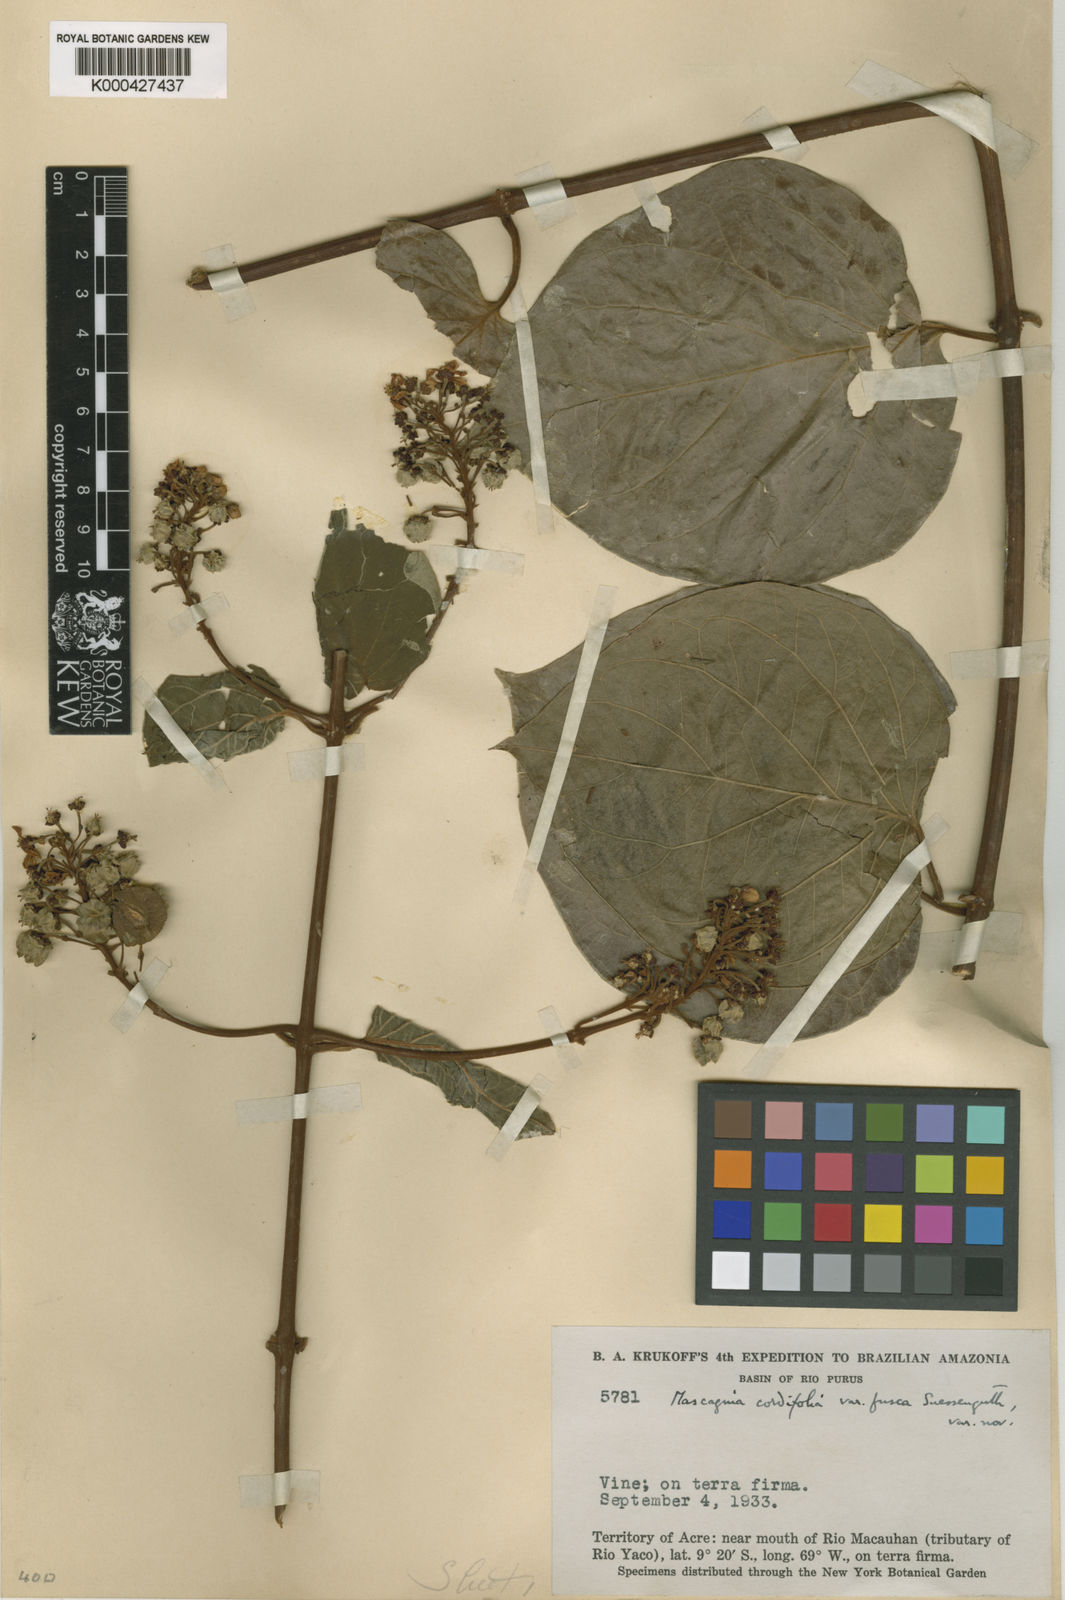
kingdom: Plantae
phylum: Tracheophyta
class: Magnoliopsida
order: Malpighiales
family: Malpighiaceae
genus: Mascagnia
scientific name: Mascagnia cordifolia
